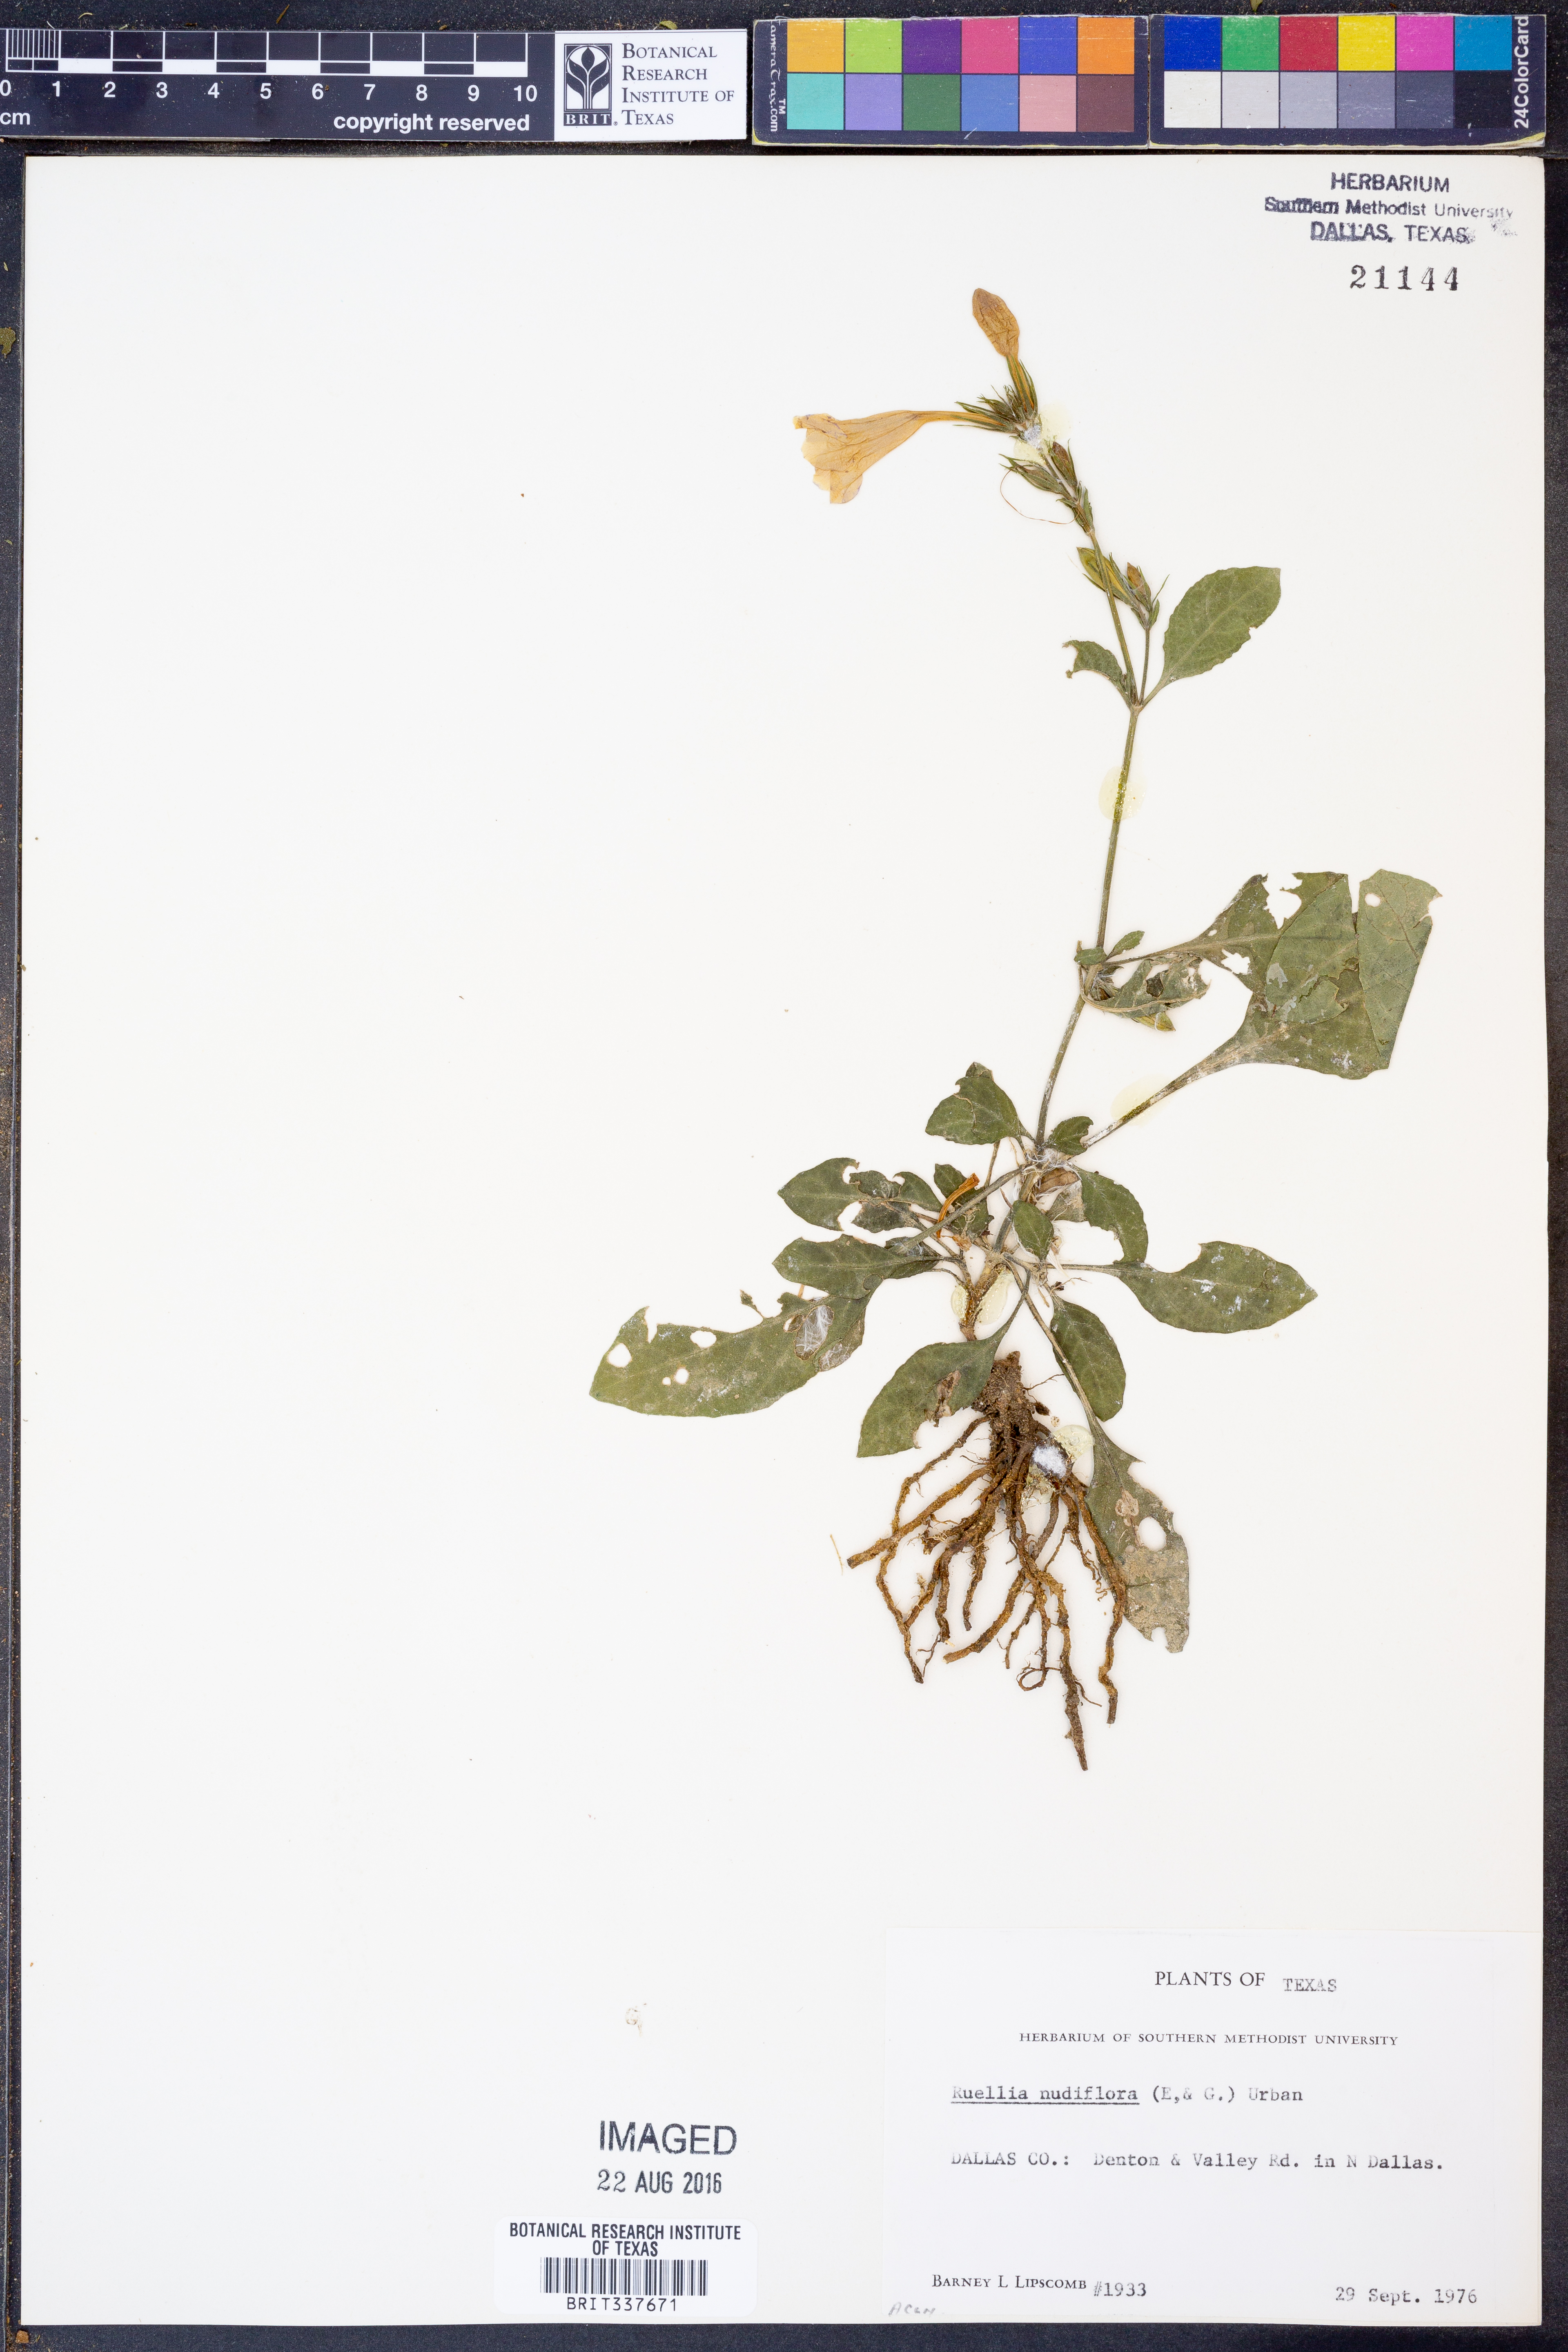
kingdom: Plantae
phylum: Tracheophyta
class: Magnoliopsida
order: Lamiales
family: Acanthaceae
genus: Ruellia
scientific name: Ruellia ciliatiflora
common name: Hairyflower wild petunia
